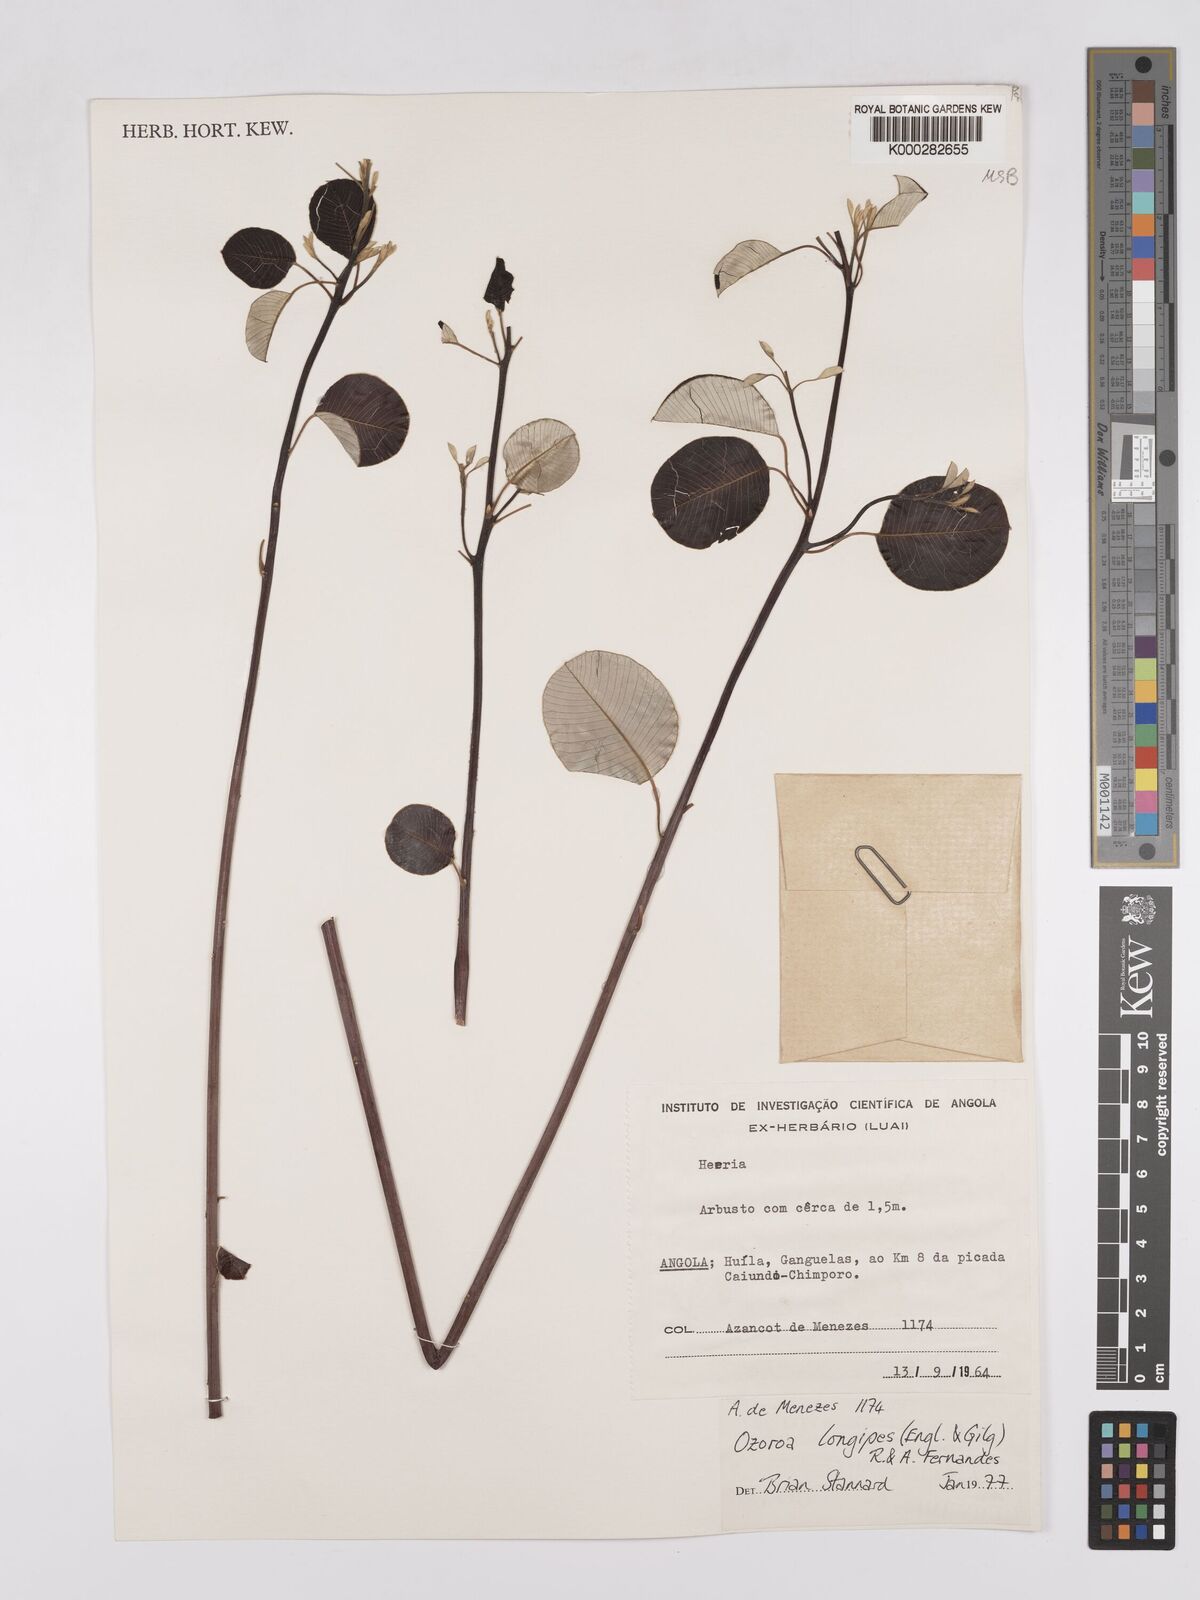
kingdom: Plantae
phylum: Tracheophyta
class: Magnoliopsida
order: Sapindales
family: Anacardiaceae
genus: Ozoroa
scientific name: Ozoroa longipes
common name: Round-leaved resin tree
